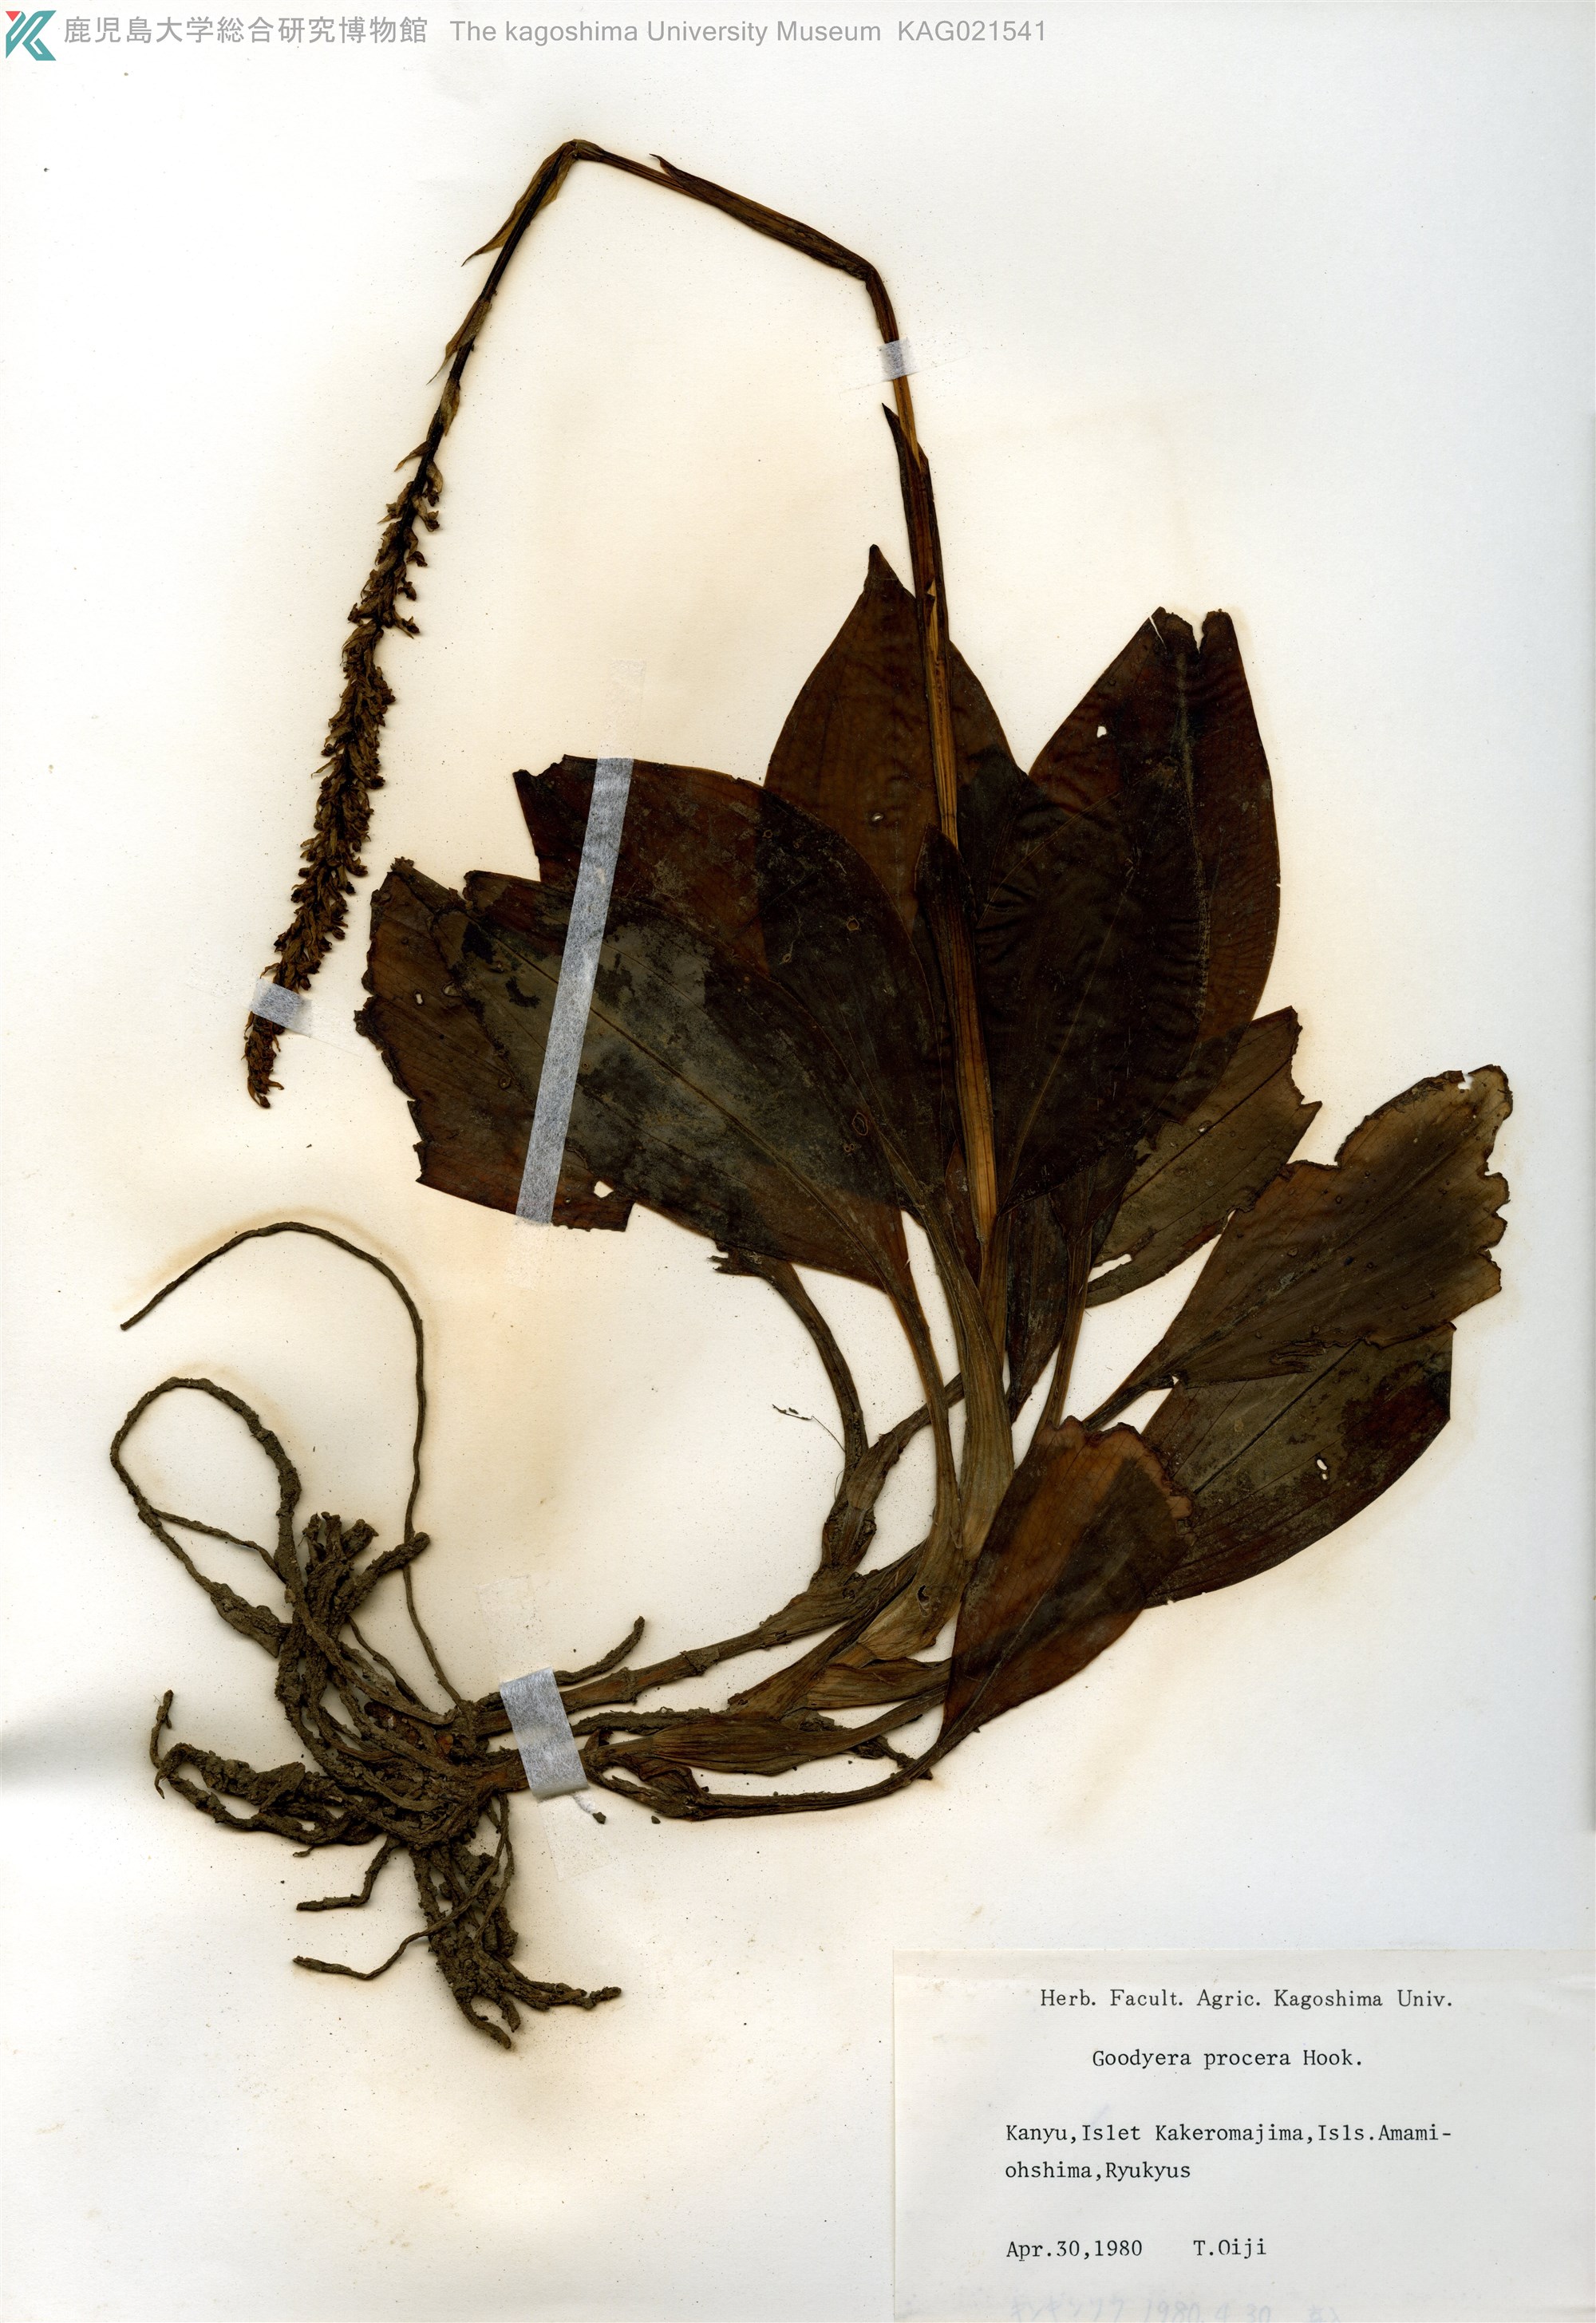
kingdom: Plantae
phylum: Tracheophyta
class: Liliopsida
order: Asparagales
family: Orchidaceae
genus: Goodyera
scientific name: Goodyera procera
